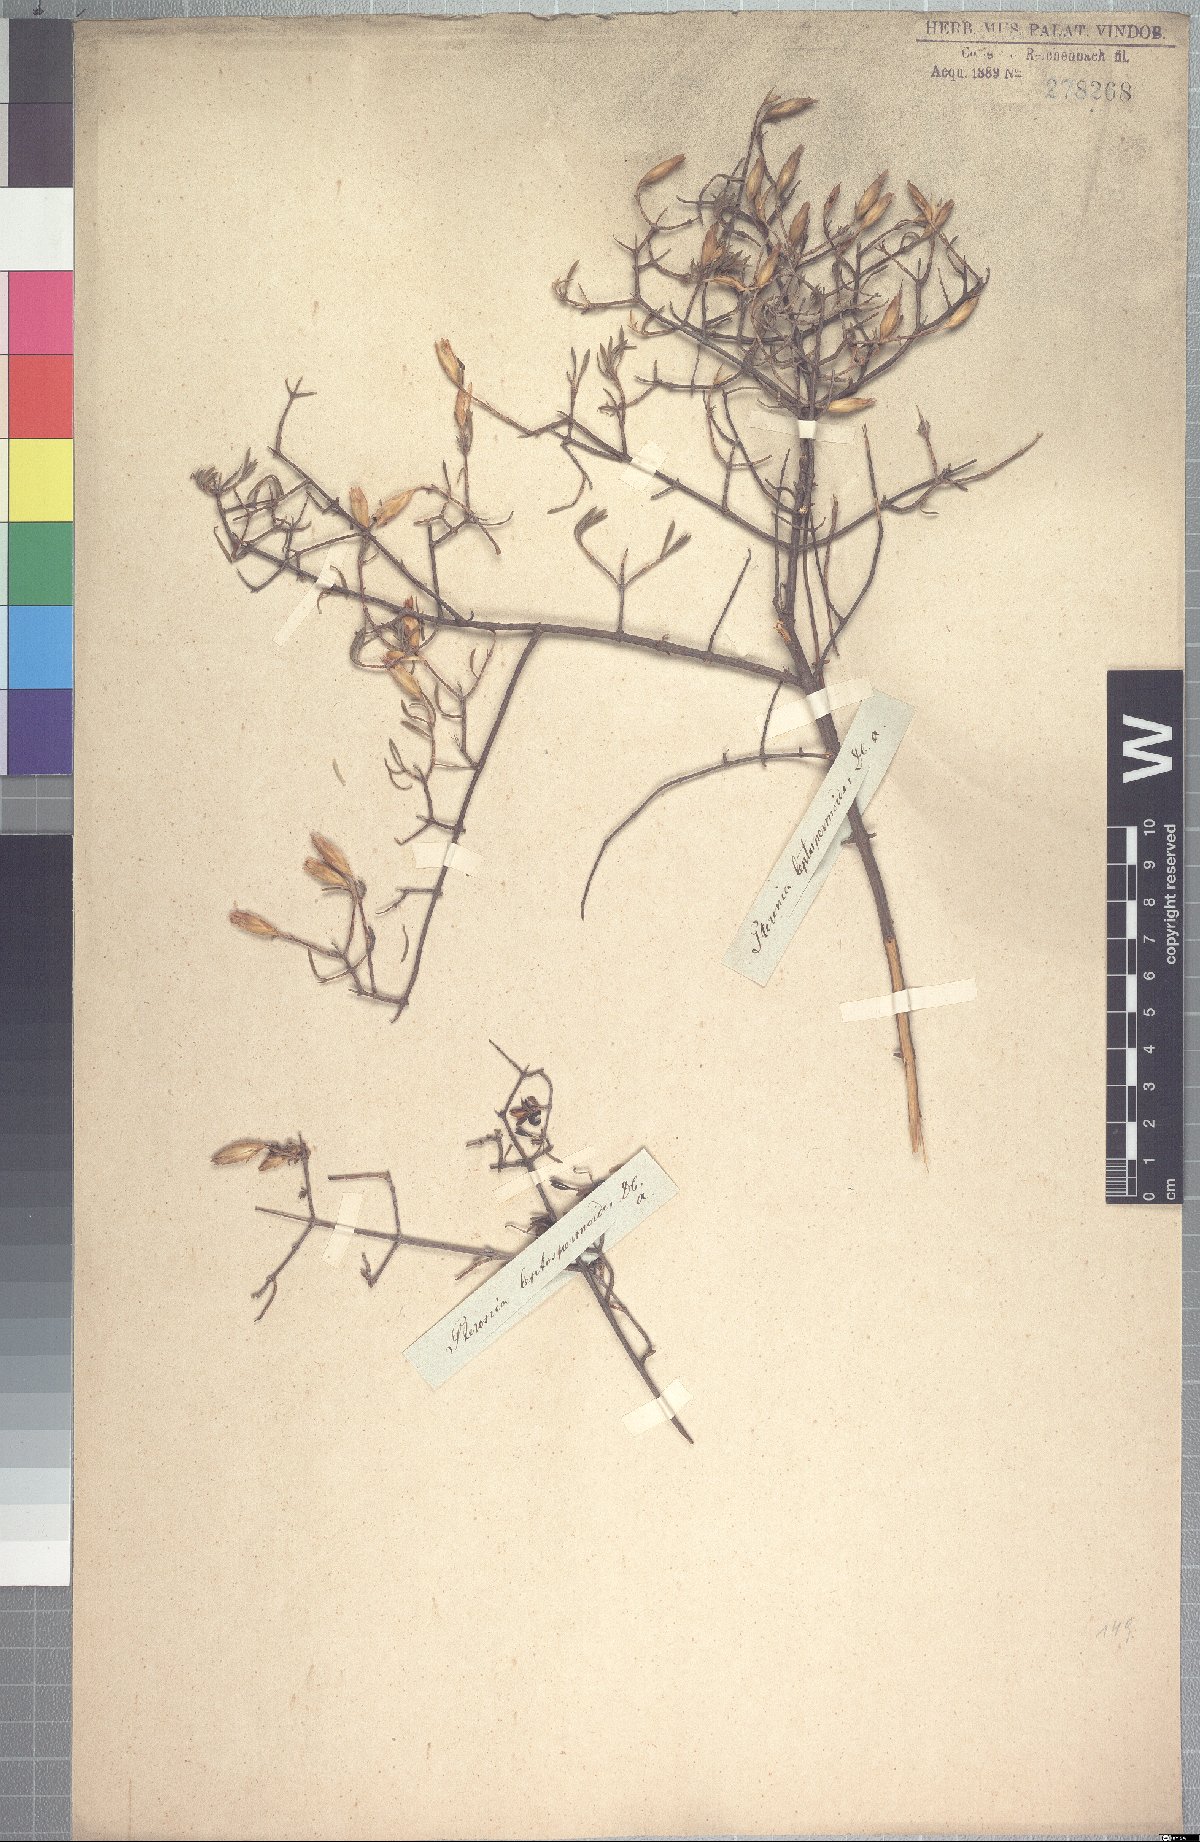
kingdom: Plantae
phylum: Tracheophyta
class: Magnoliopsida
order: Asterales
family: Asteraceae
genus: Pteronia
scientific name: Pteronia leptospermoides
